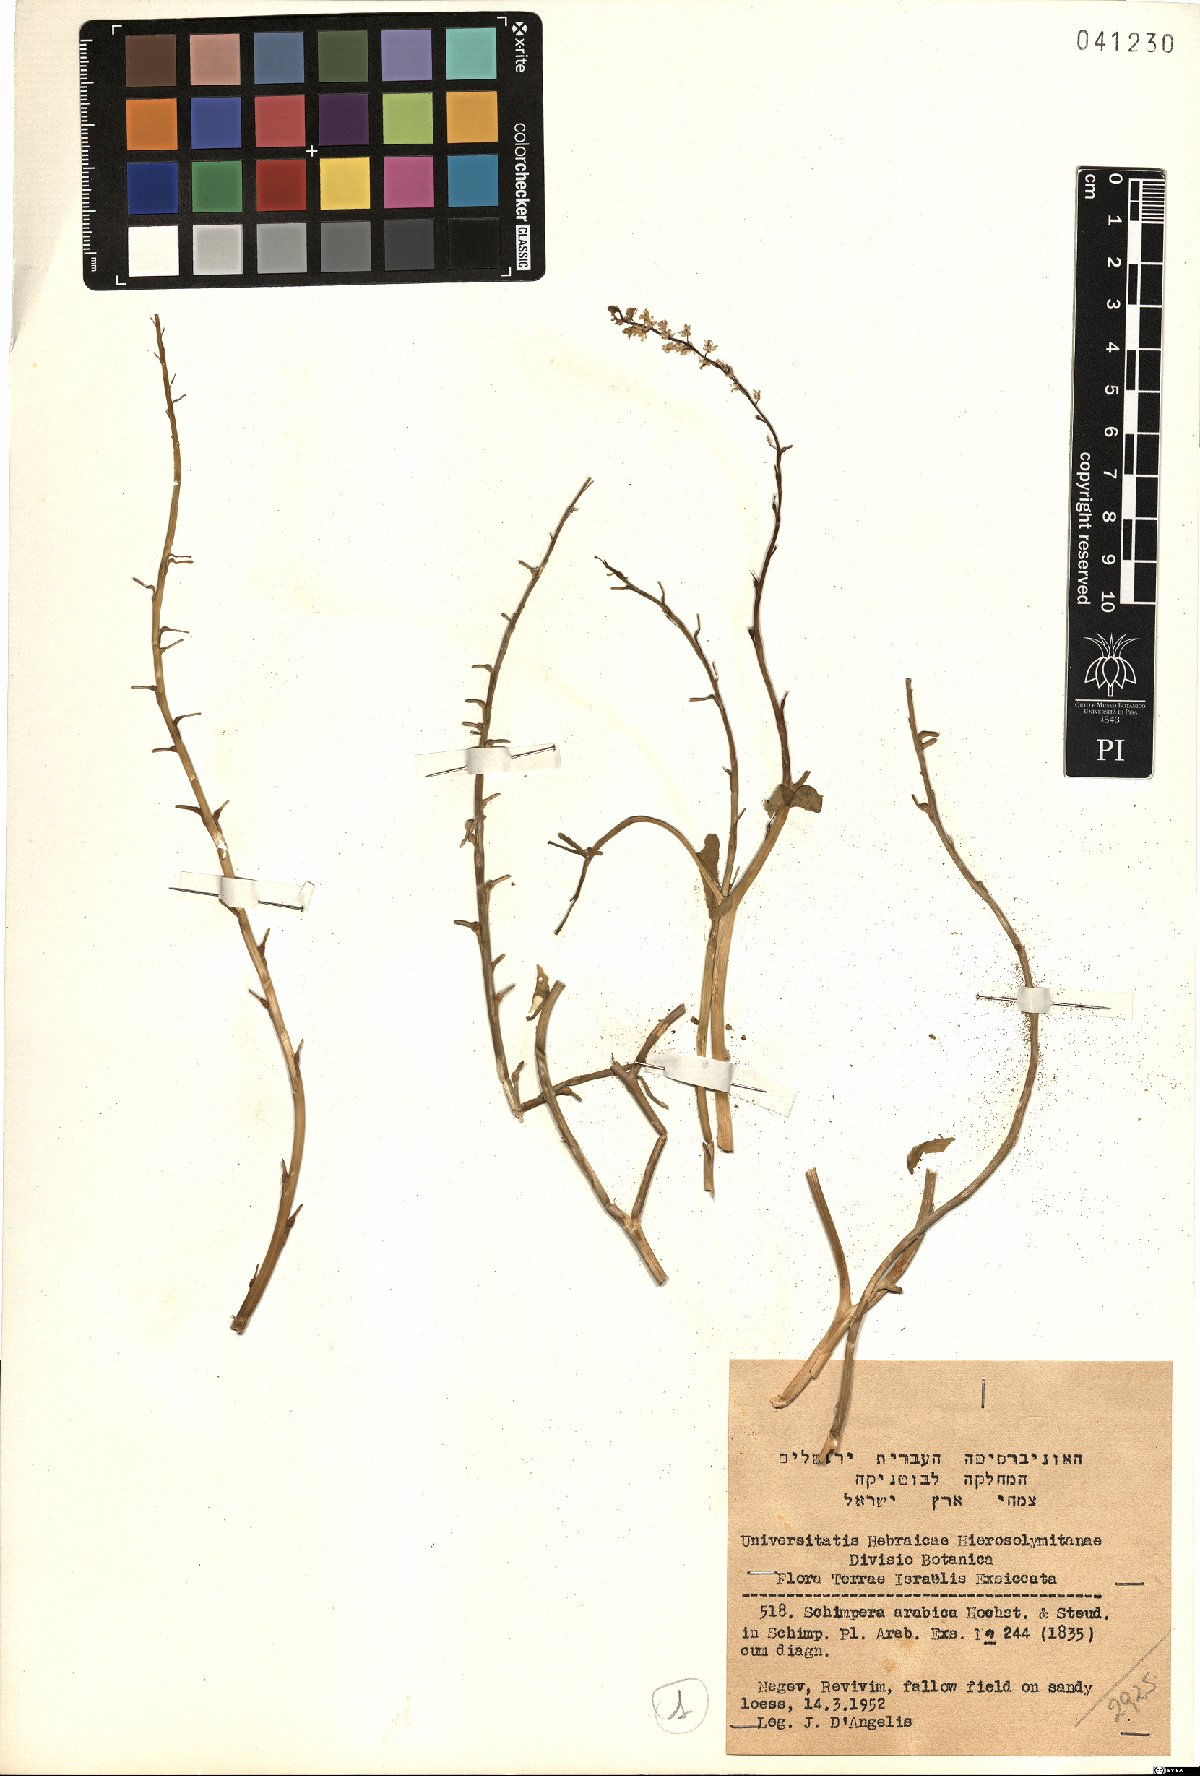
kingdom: Plantae
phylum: Tracheophyta
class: Magnoliopsida
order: Brassicales
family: Brassicaceae
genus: Schimpera
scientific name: Schimpera arabica
